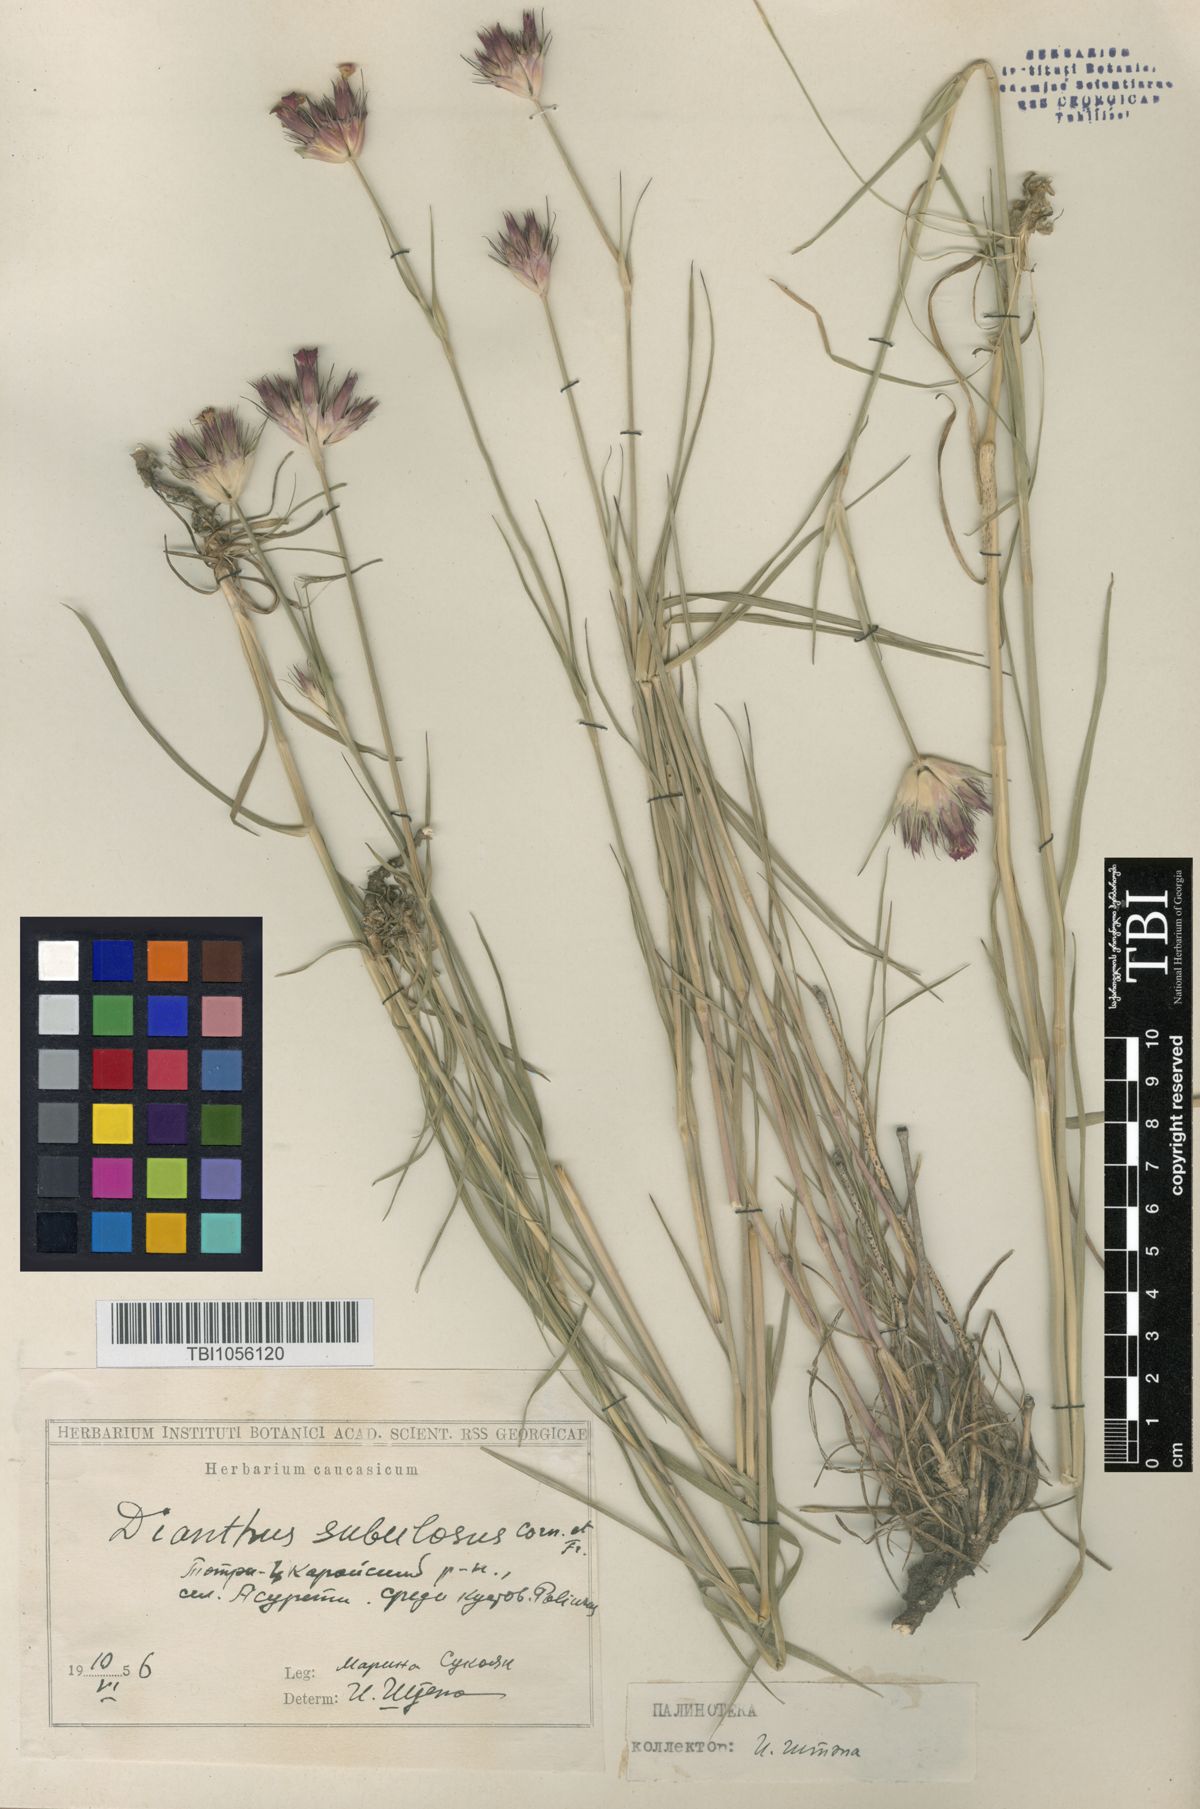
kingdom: Plantae
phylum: Tracheophyta
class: Magnoliopsida
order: Caryophyllales
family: Caryophyllaceae
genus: Dianthus
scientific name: Dianthus subulosus
